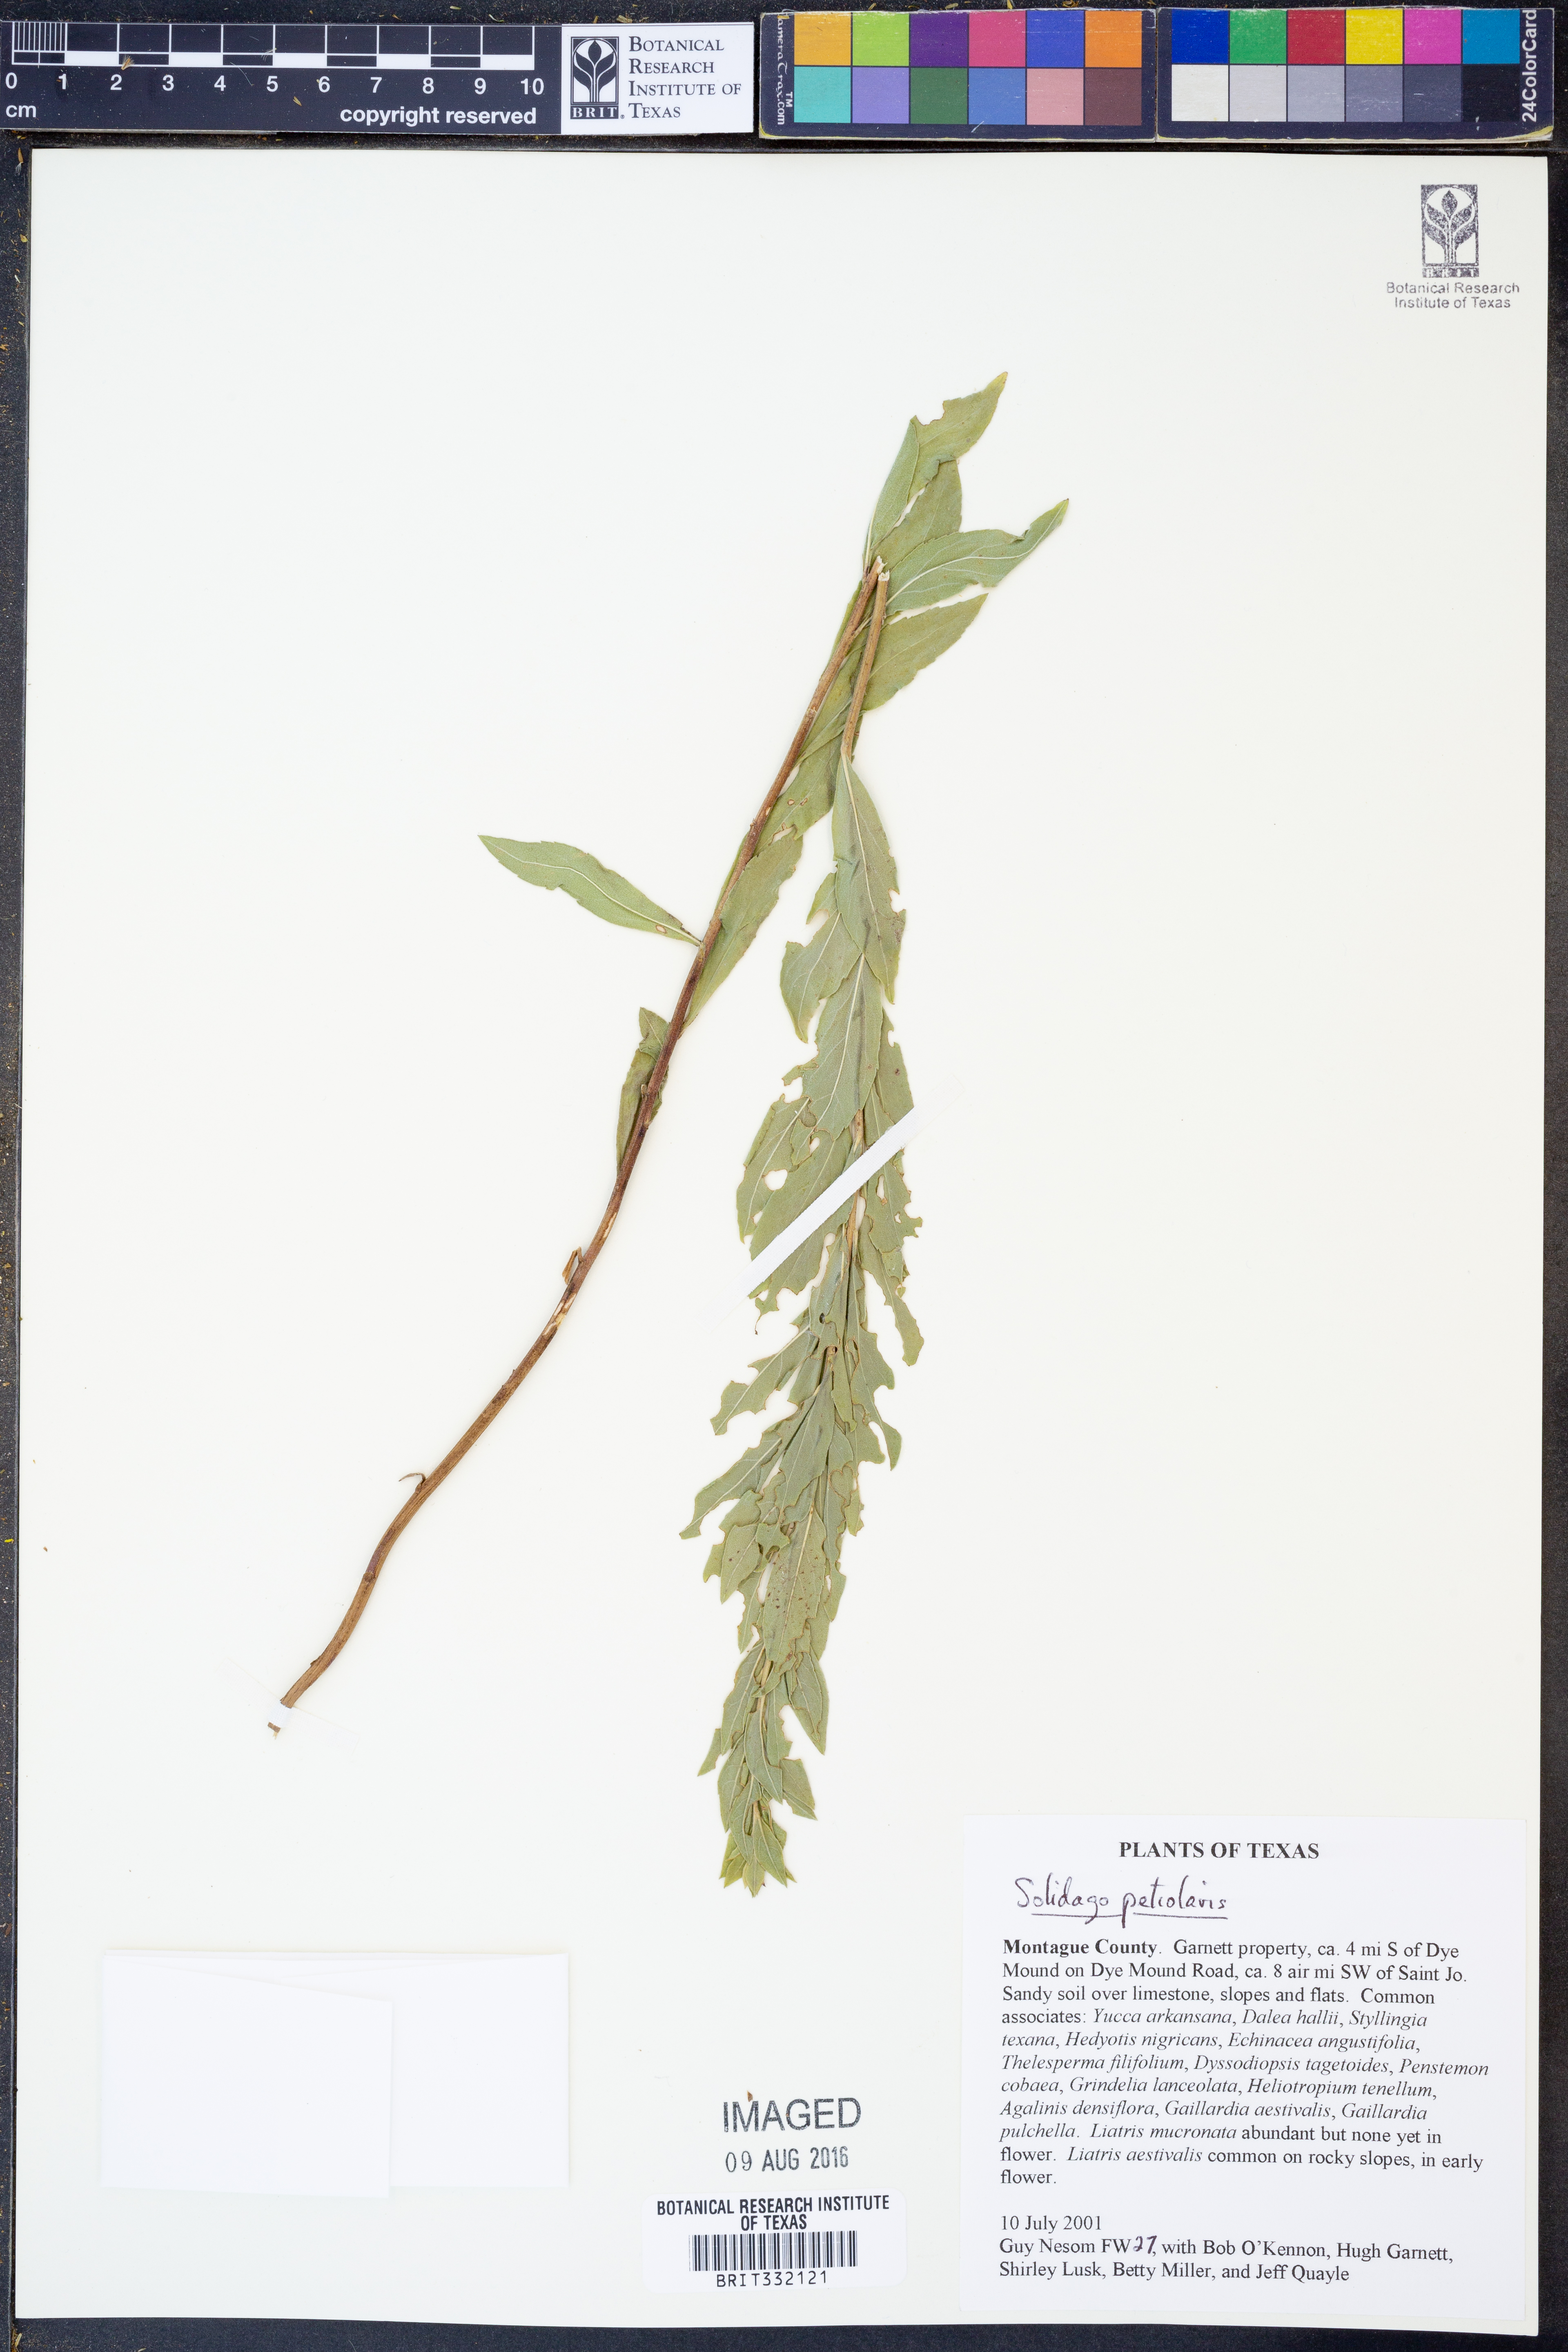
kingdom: Plantae
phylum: Tracheophyta
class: Magnoliopsida
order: Asterales
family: Asteraceae
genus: Solidago
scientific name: Solidago petiolaris
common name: Downy ragged goldenrod
